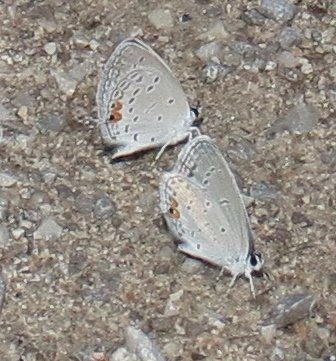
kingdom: Animalia
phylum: Arthropoda
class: Insecta
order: Lepidoptera
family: Lycaenidae
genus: Elkalyce
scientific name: Elkalyce comyntas
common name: Eastern Tailed-Blue
